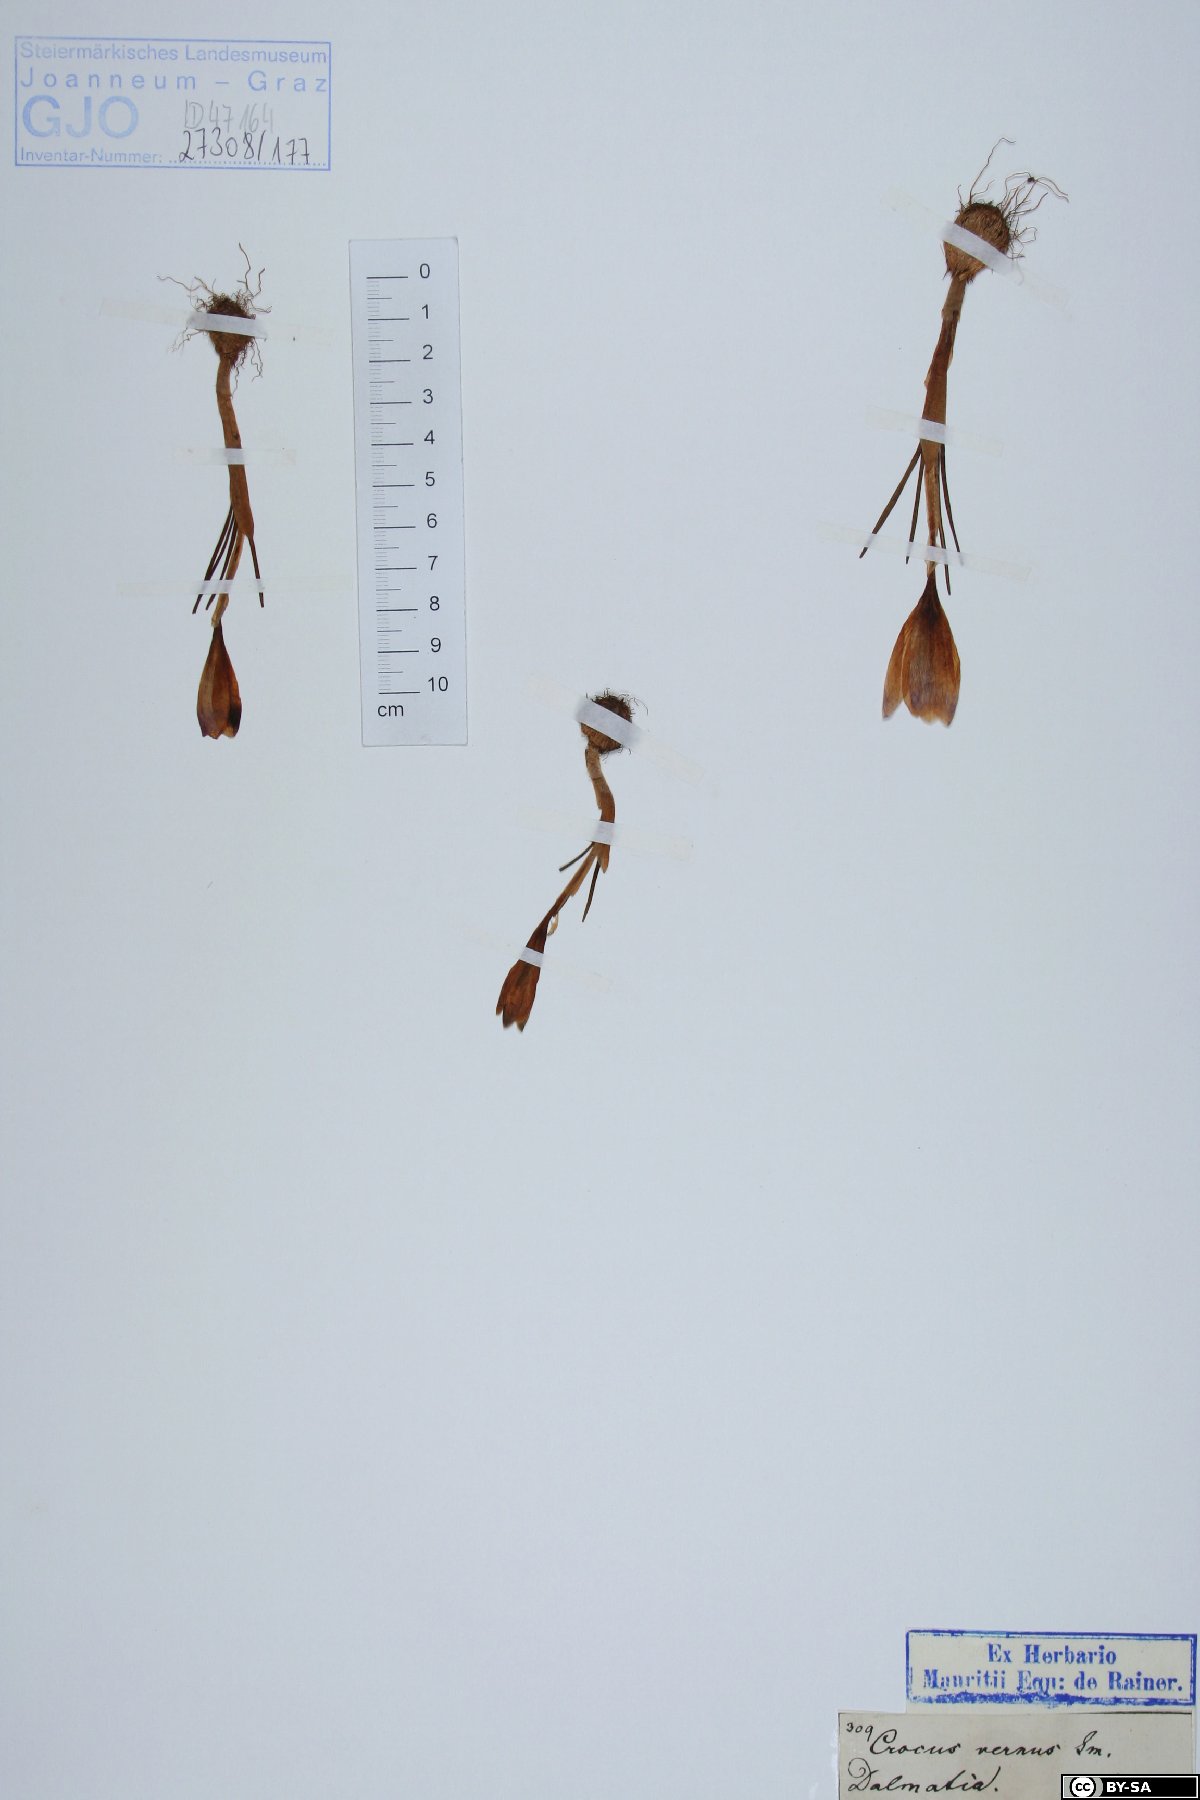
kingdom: Plantae
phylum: Tracheophyta
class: Liliopsida
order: Asparagales
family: Iridaceae
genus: Crocus
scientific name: Crocus vernus
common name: Spring crocus
